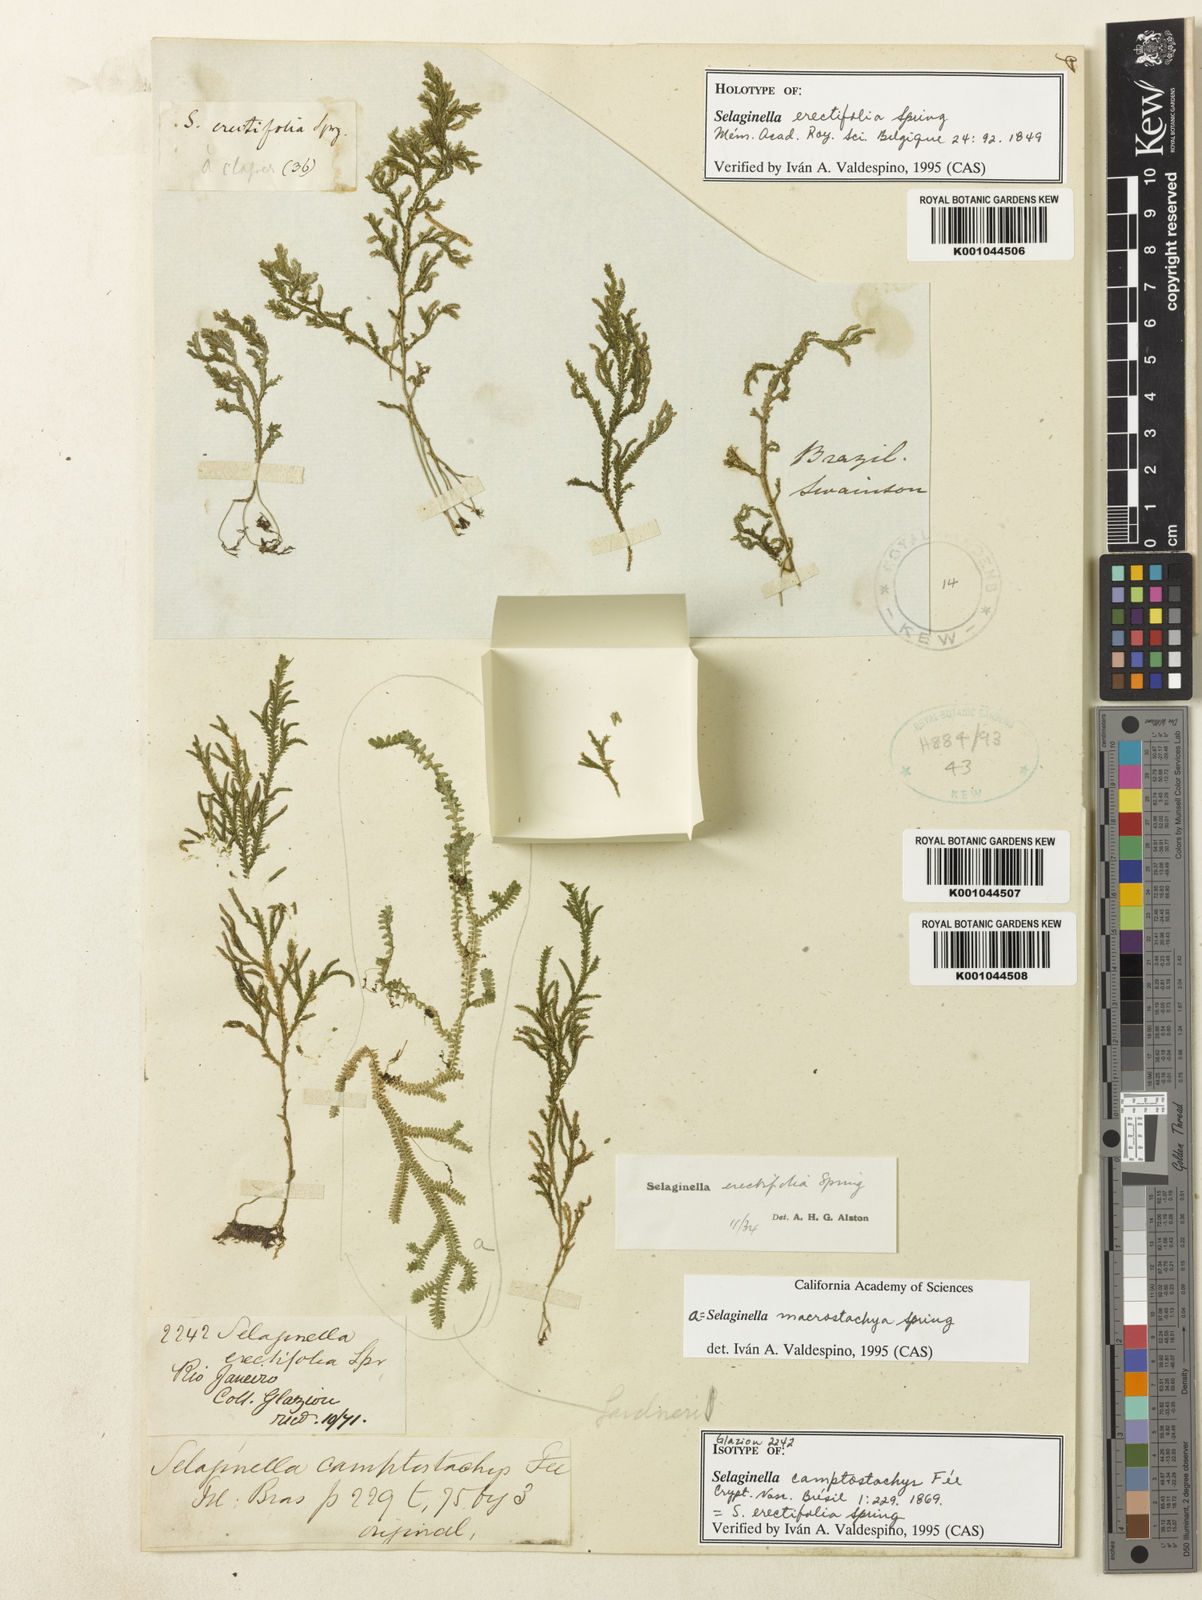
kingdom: Plantae
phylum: Tracheophyta
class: Lycopodiopsida
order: Selaginellales
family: Selaginellaceae
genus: Selaginella
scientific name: Selaginella erectifolia
